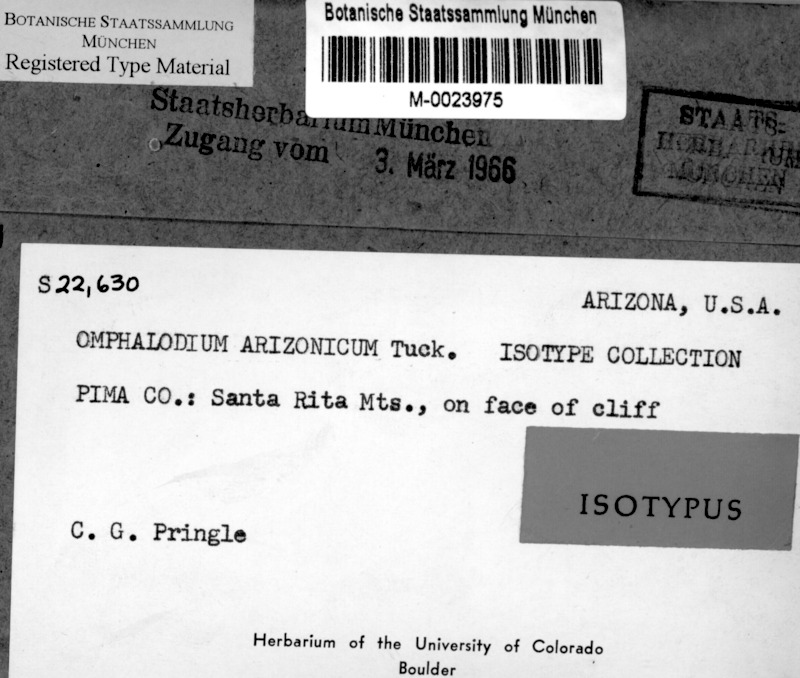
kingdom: Fungi
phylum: Ascomycota
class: Lecanoromycetes
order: Lecanorales
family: Parmeliaceae
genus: Omphalora
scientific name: Omphalora arizonica
